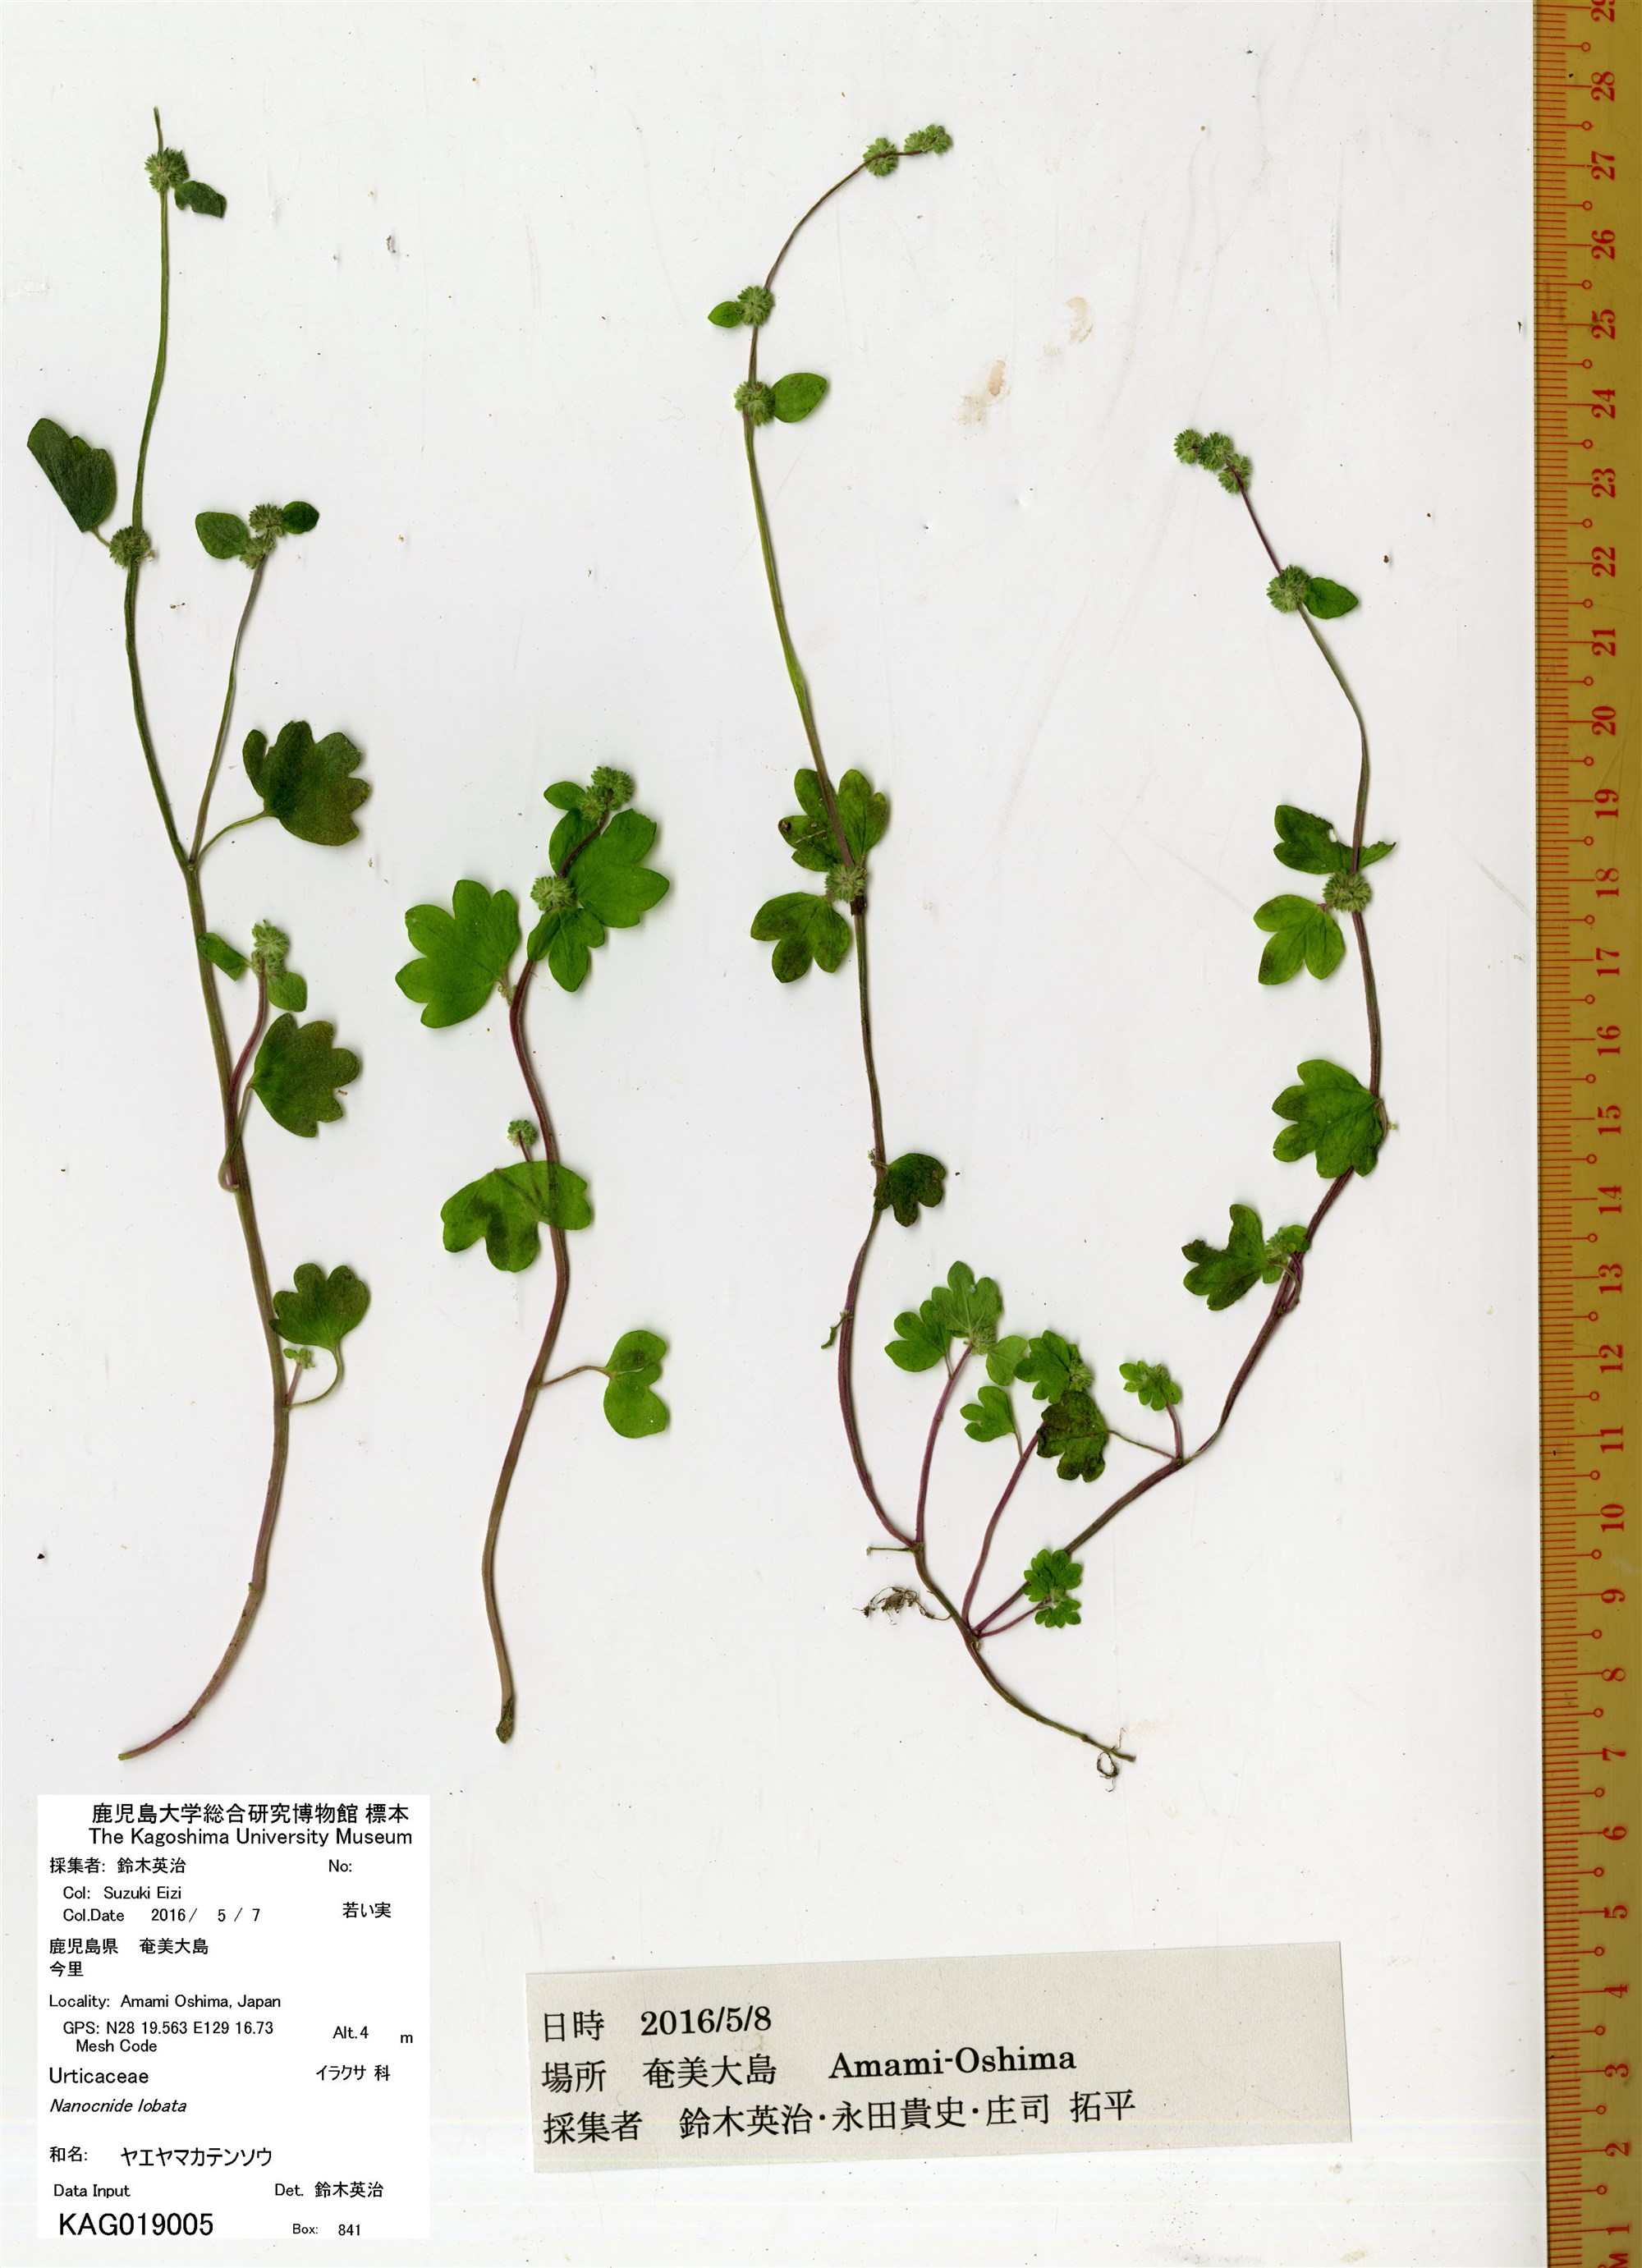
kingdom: Plantae
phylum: Tracheophyta
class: Magnoliopsida
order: Rosales
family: Urticaceae
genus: Nanocnide
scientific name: Nanocnide lobata
